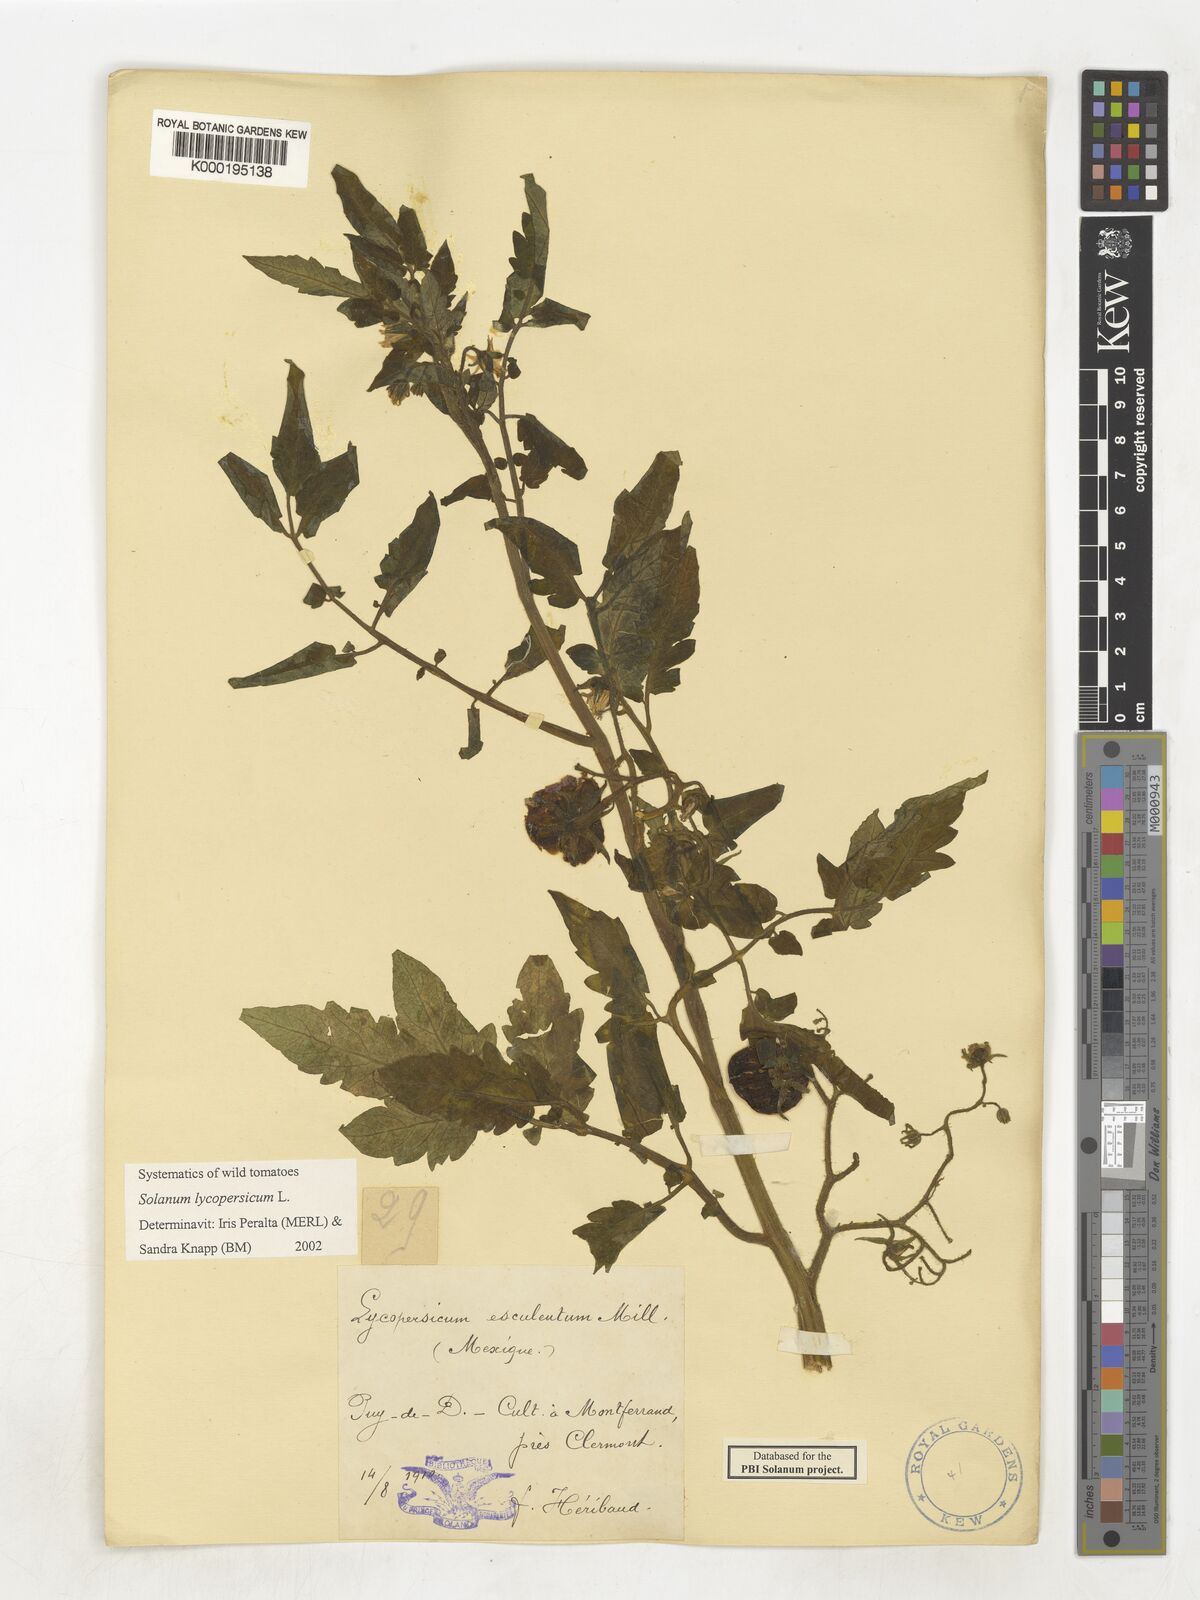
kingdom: Plantae
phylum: Tracheophyta
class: Magnoliopsida
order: Solanales
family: Solanaceae
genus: Solanum
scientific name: Solanum lycopersicum
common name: Garden tomato
